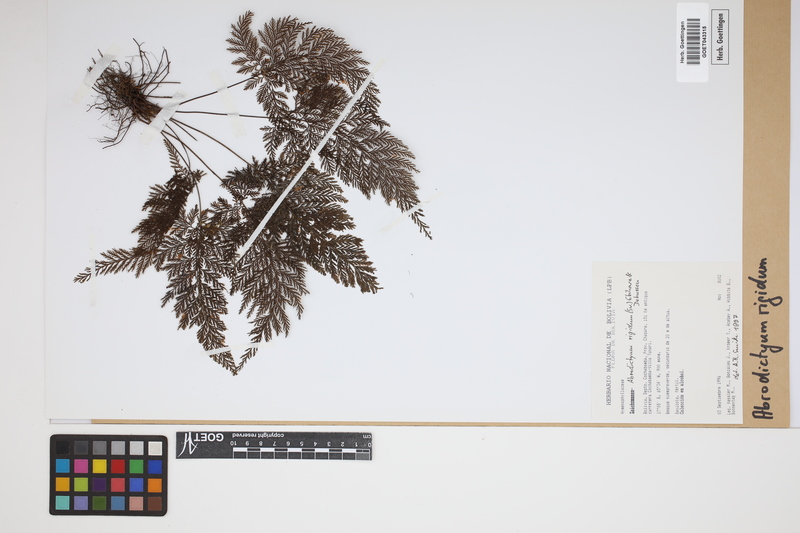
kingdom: Plantae
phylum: Tracheophyta
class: Polypodiopsida
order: Hymenophyllales
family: Hymenophyllaceae
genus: Abrodictyum
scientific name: Abrodictyum rigidum
